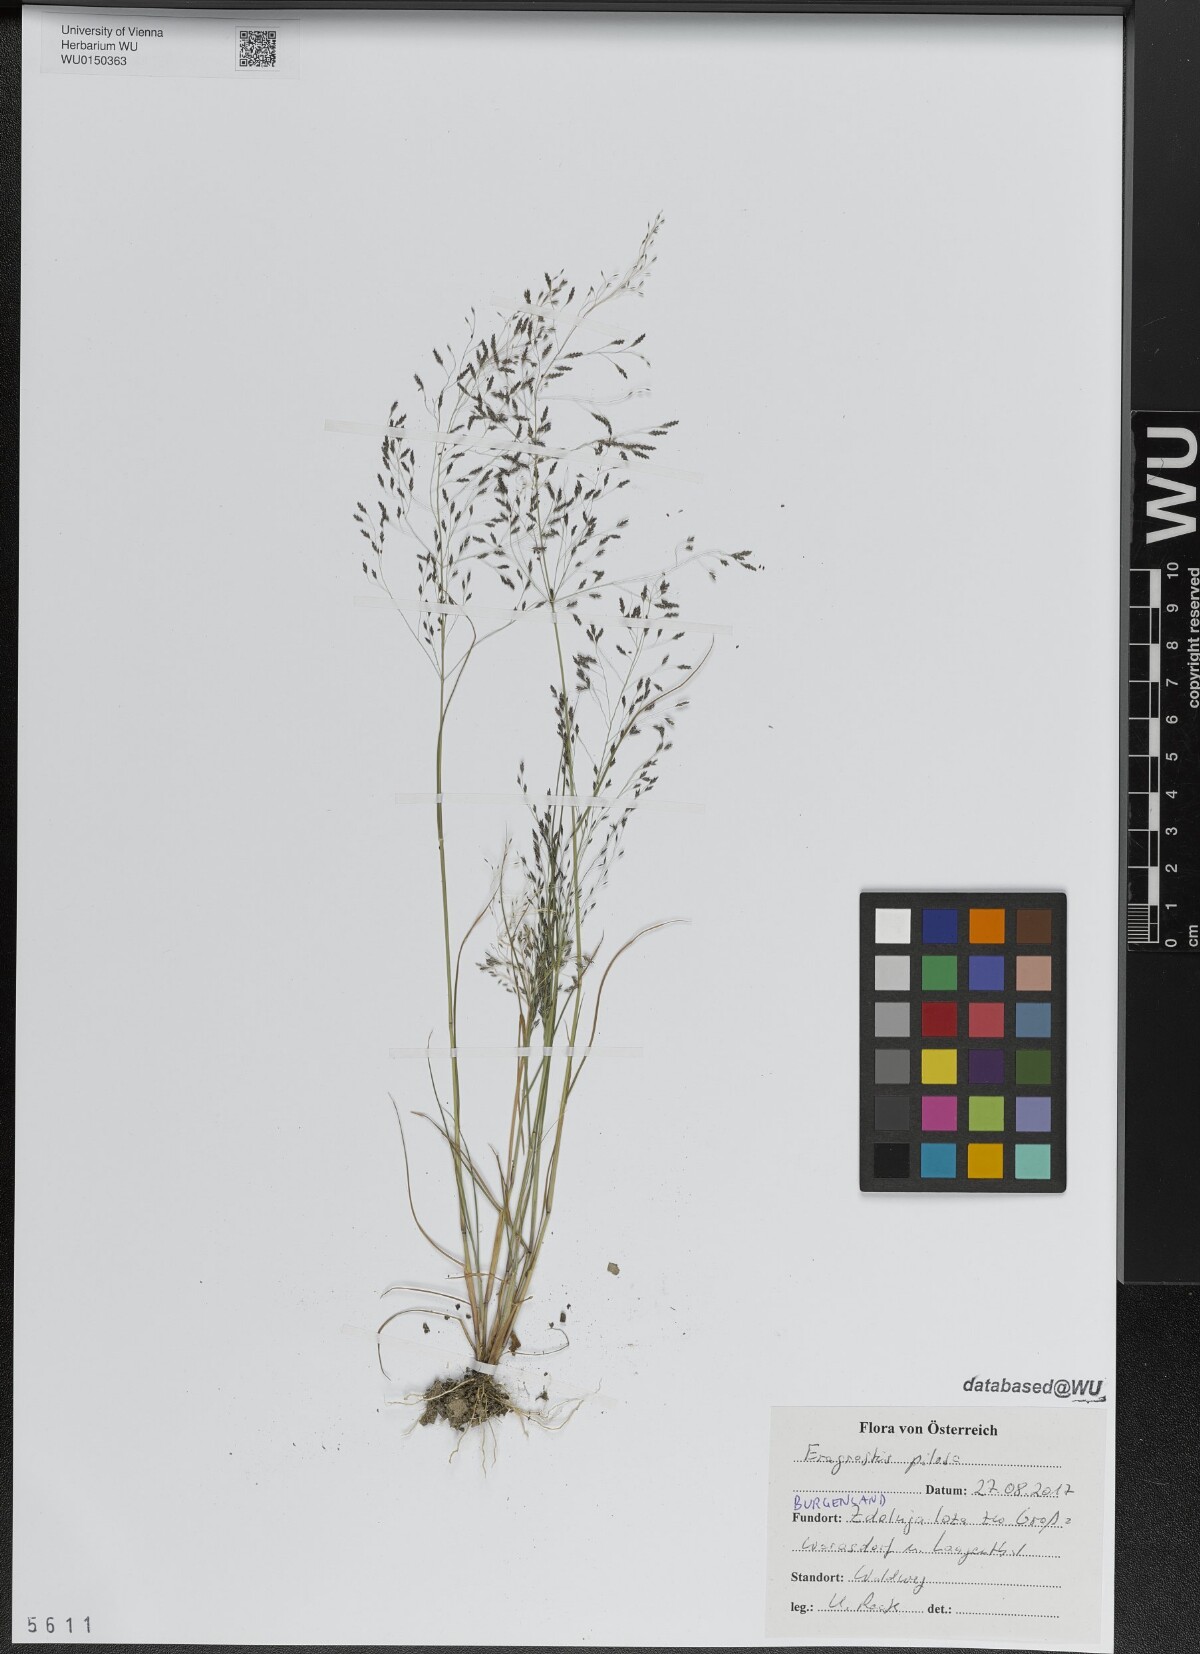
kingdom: Plantae
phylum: Tracheophyta
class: Liliopsida
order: Poales
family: Poaceae
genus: Eragrostis
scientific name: Eragrostis pilosa
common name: Indian lovegrass
